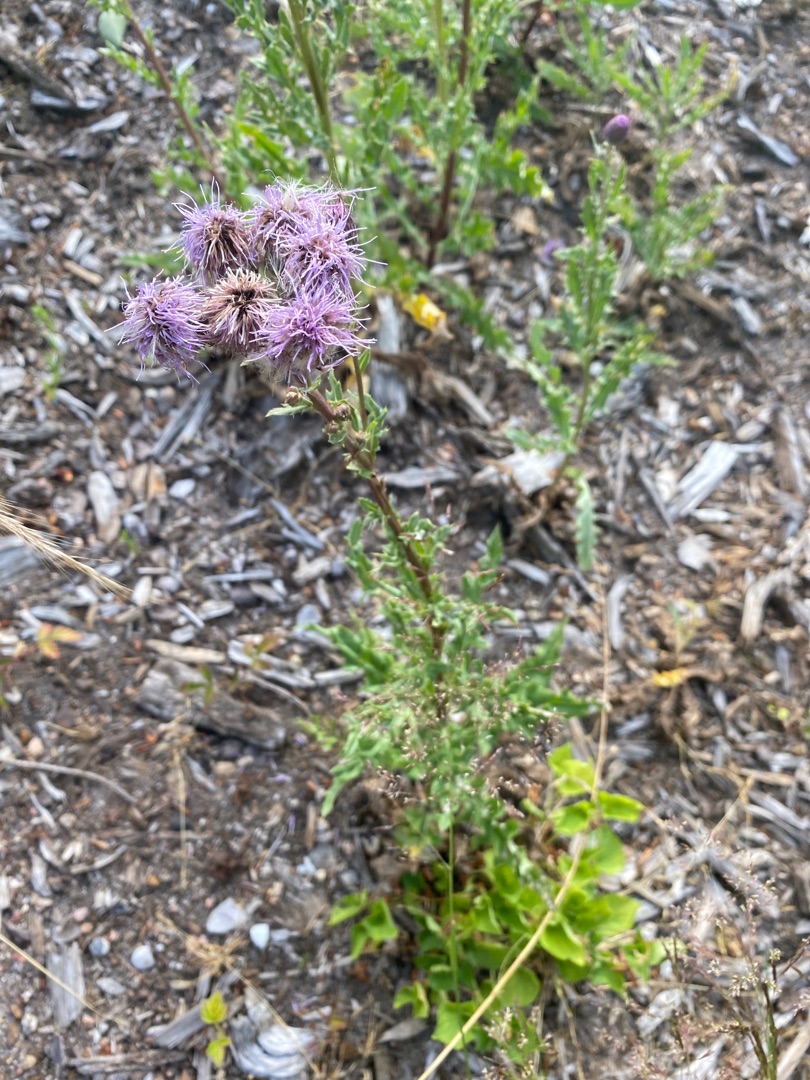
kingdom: Plantae
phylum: Tracheophyta
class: Magnoliopsida
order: Asterales
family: Asteraceae
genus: Cirsium
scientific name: Cirsium arvense
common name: Ager-tidsel
